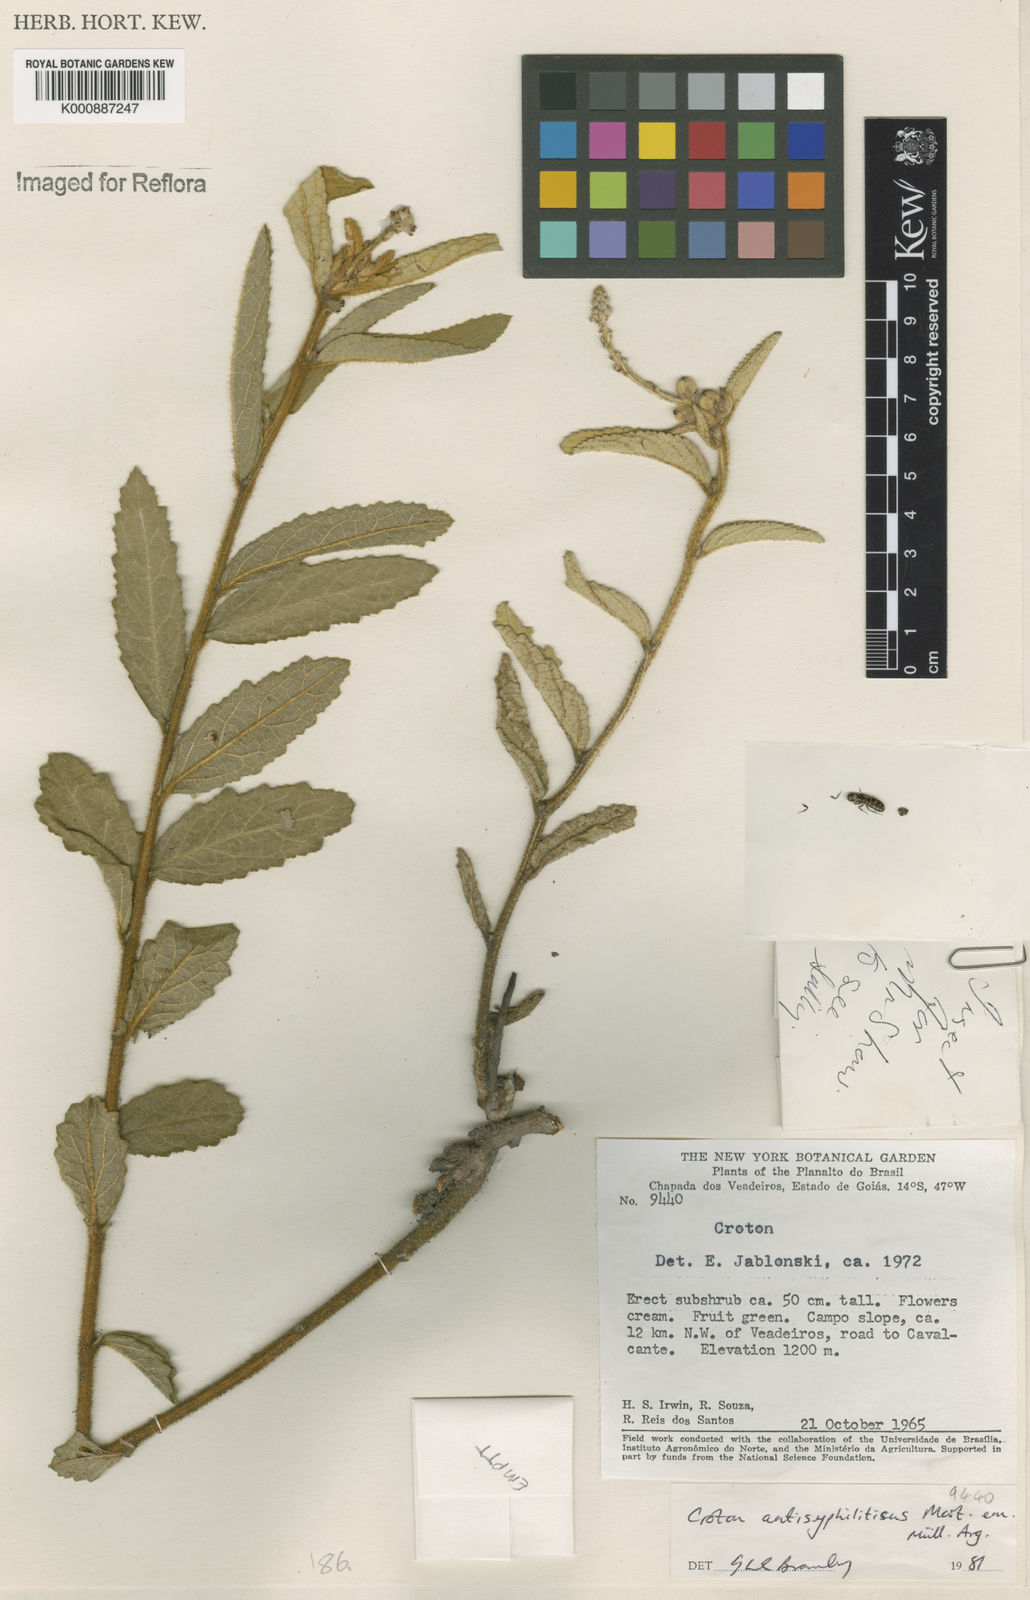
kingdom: Plantae
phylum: Tracheophyta
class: Magnoliopsida
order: Malpighiales
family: Euphorbiaceae
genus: Croton
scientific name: Croton antisyphiliticus
